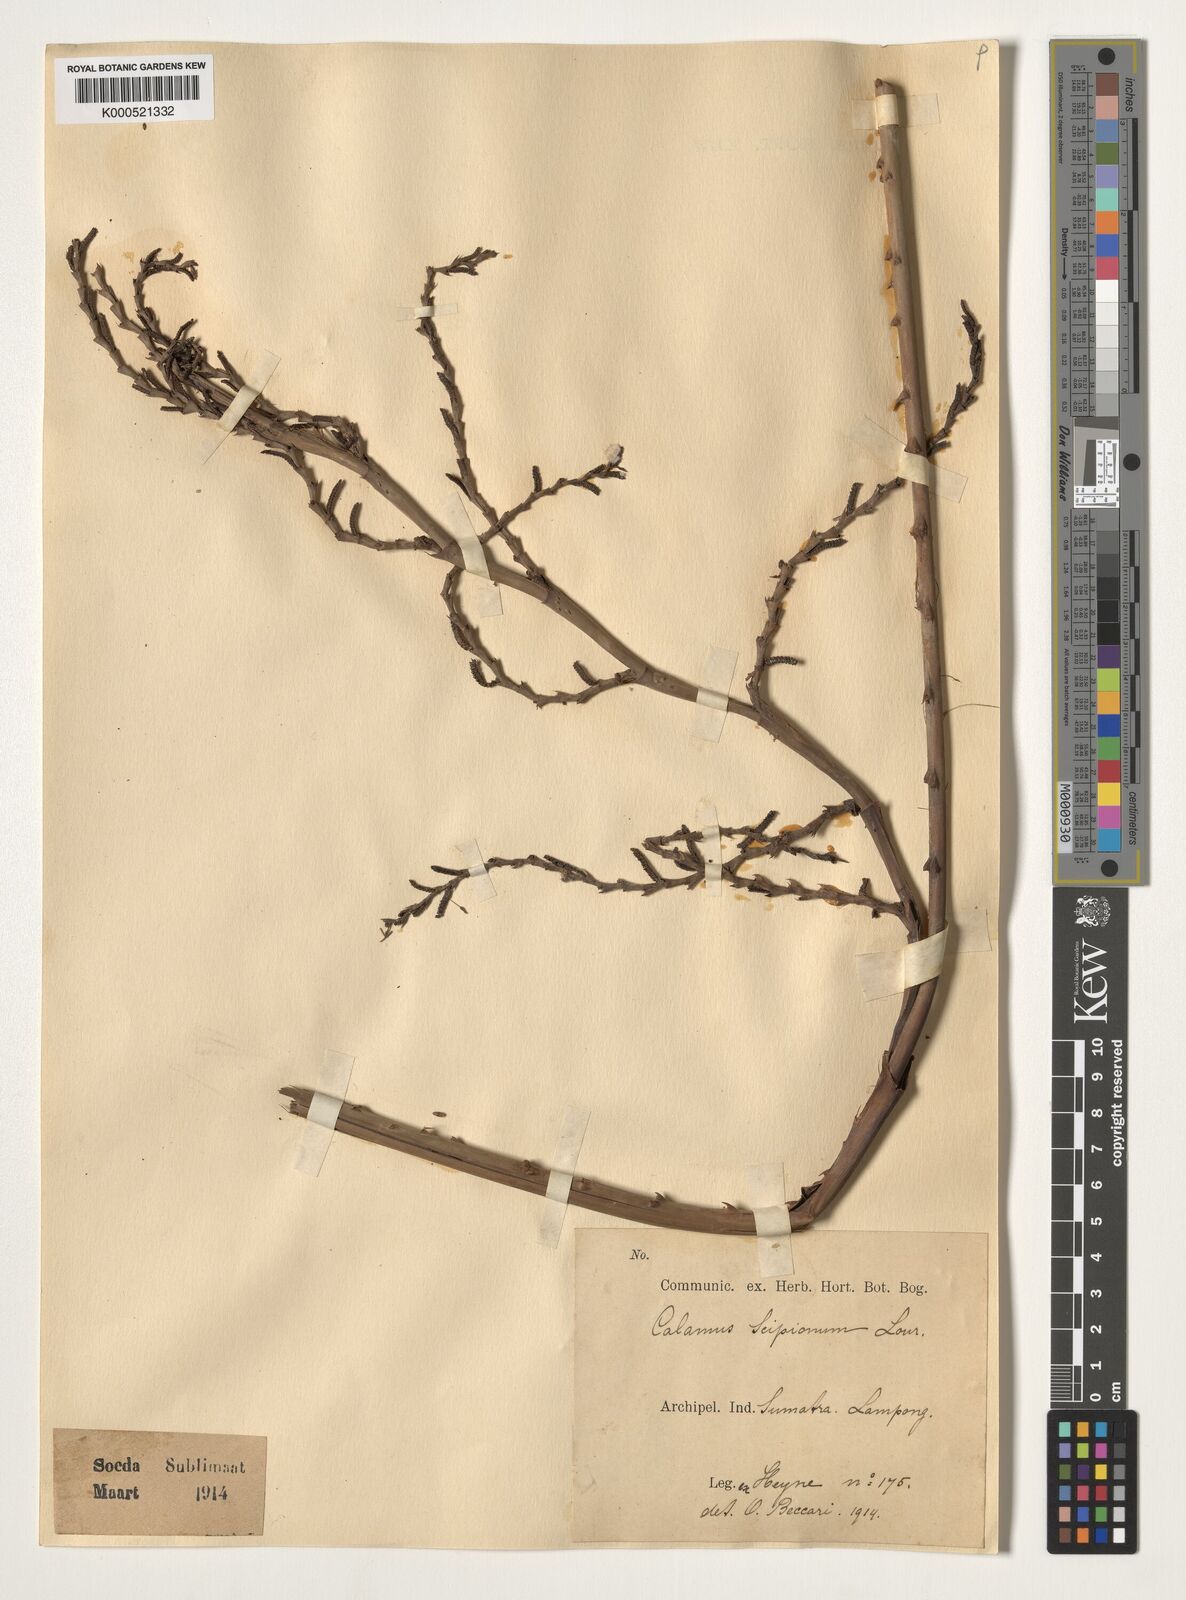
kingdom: Plantae
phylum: Tracheophyta
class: Liliopsida
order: Arecales
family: Arecaceae
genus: Calamus
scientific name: Calamus scipionum
